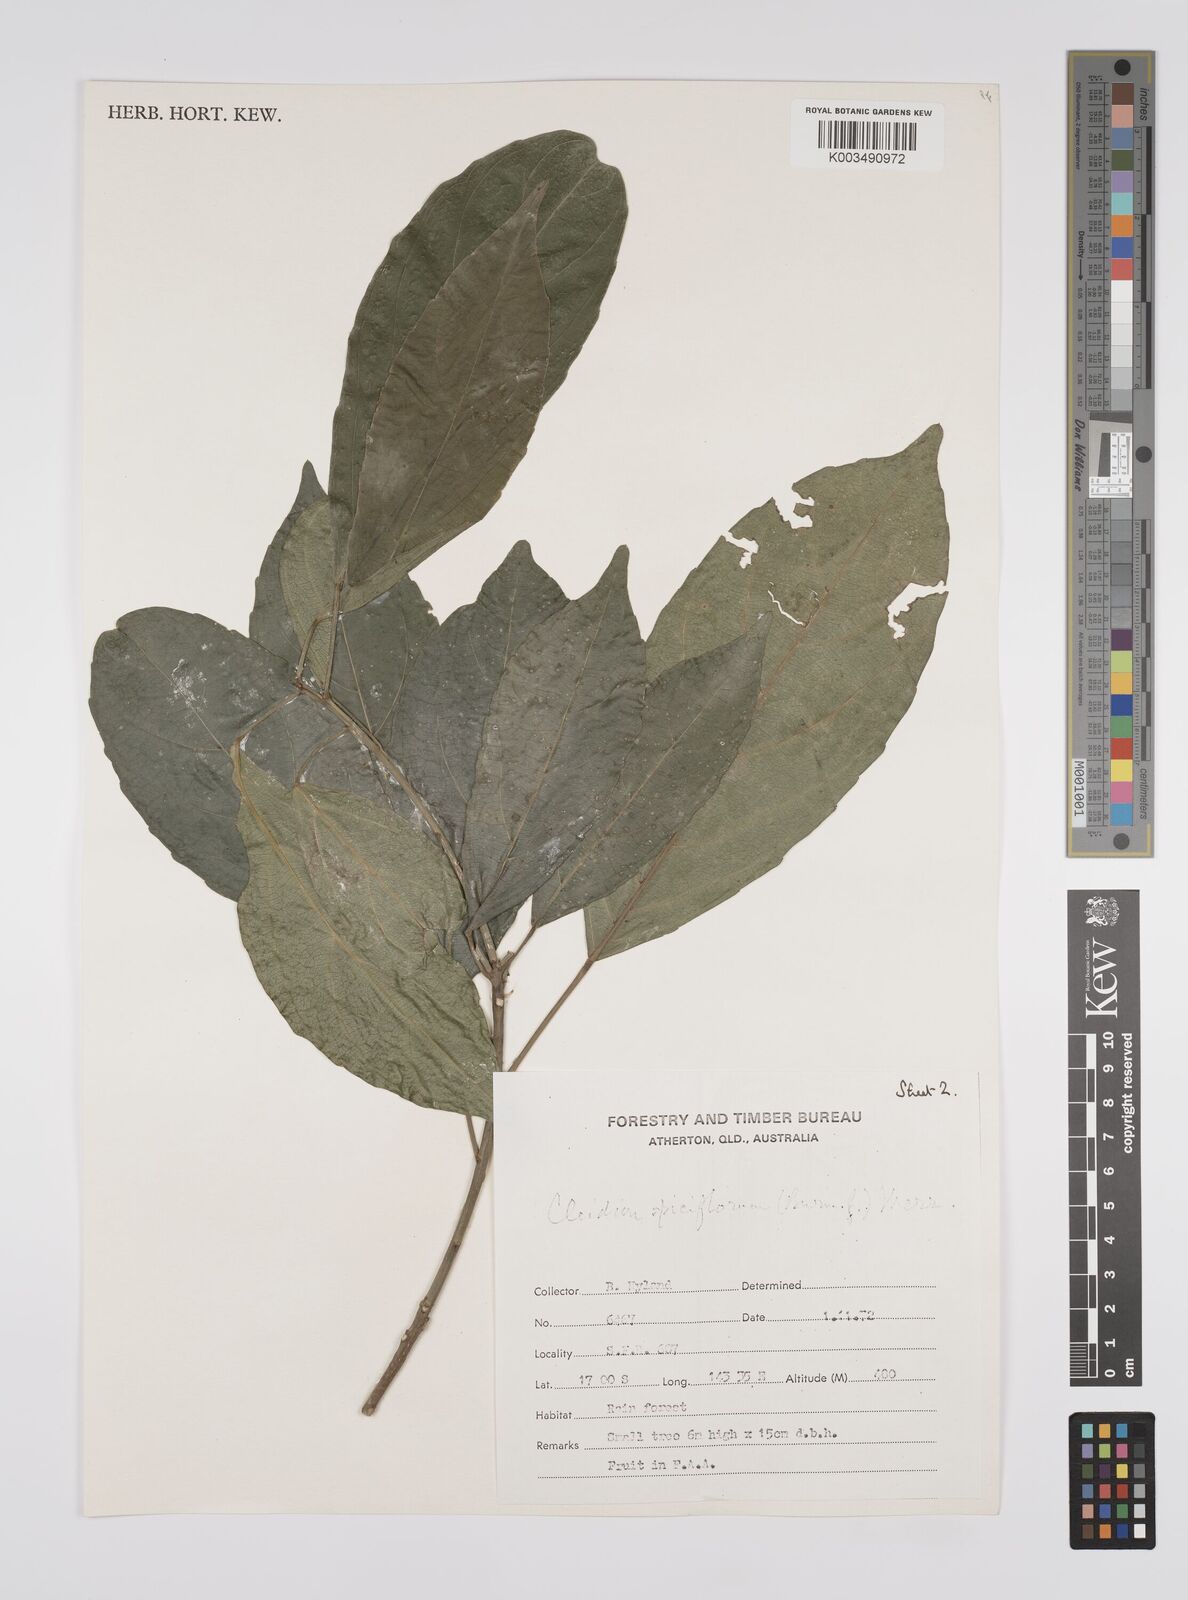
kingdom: Plantae
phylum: Tracheophyta
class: Magnoliopsida
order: Malpighiales
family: Euphorbiaceae
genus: Cleidion
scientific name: Cleidion javanicum
